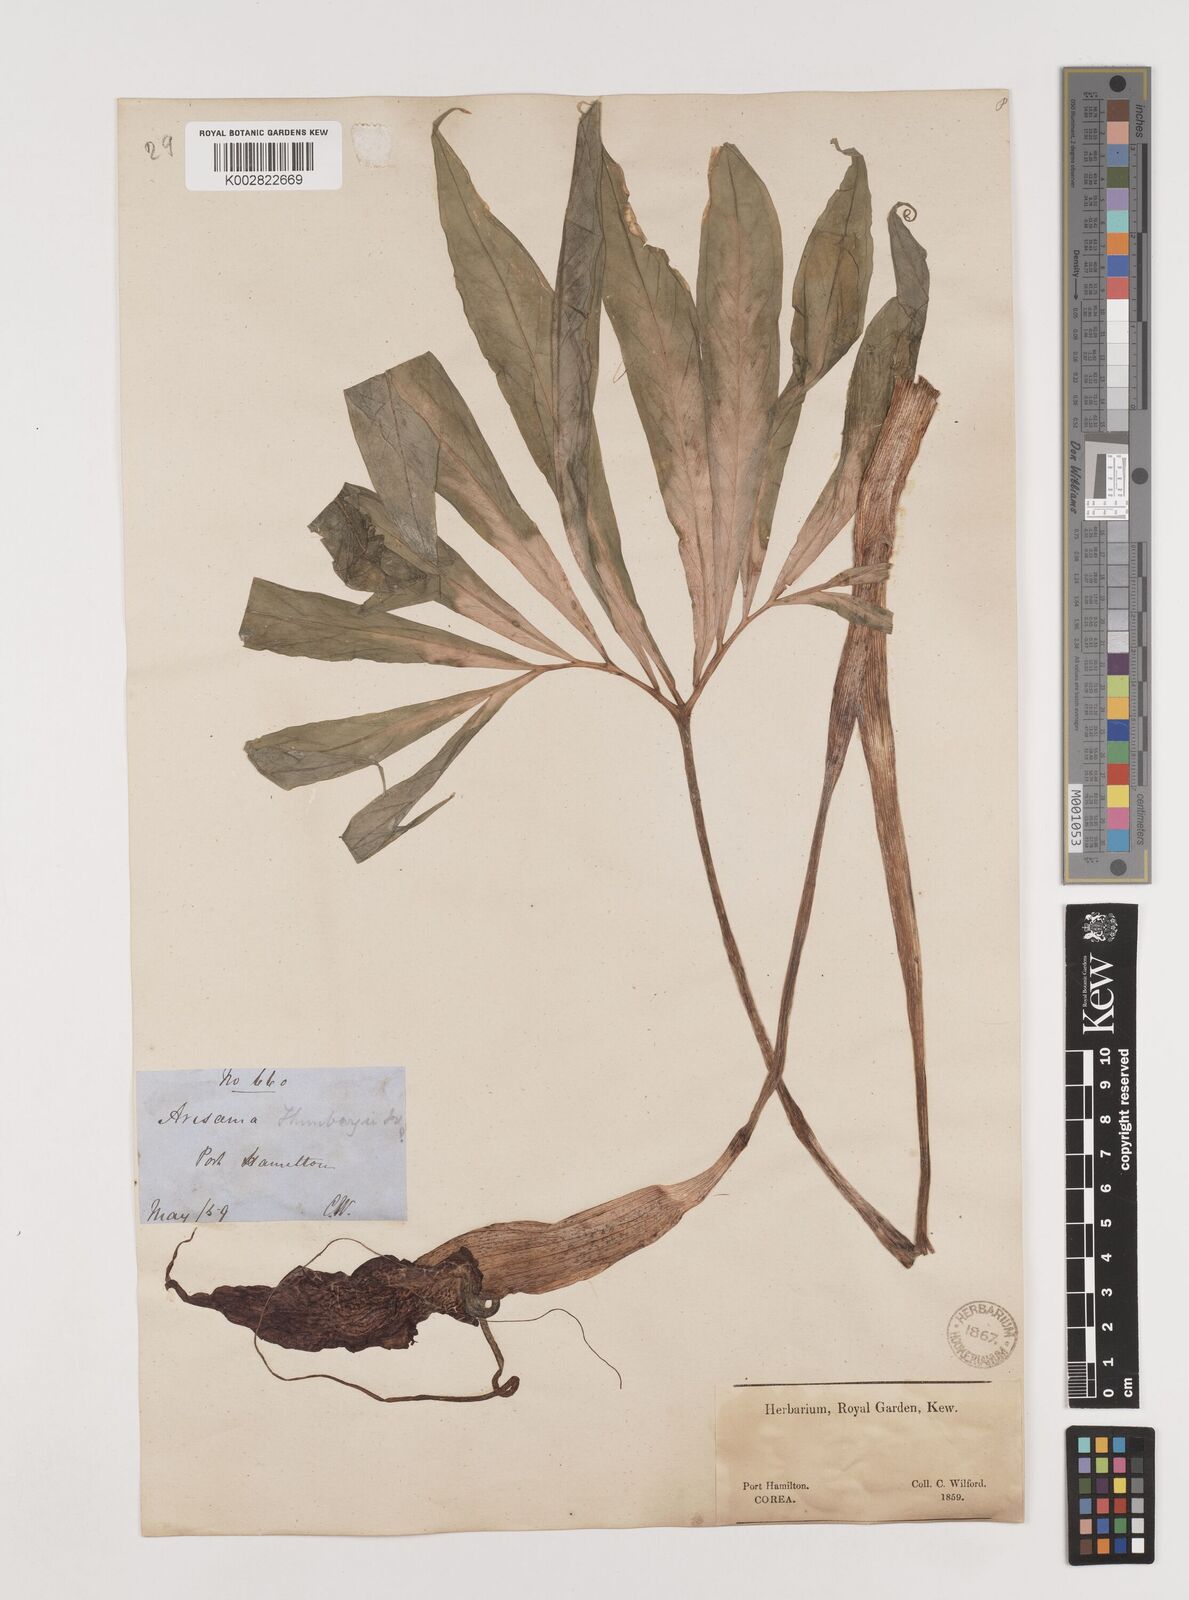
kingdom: Plantae
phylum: Tracheophyta
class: Liliopsida
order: Alismatales
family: Araceae
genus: Arisaema
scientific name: Arisaema thunbergii
